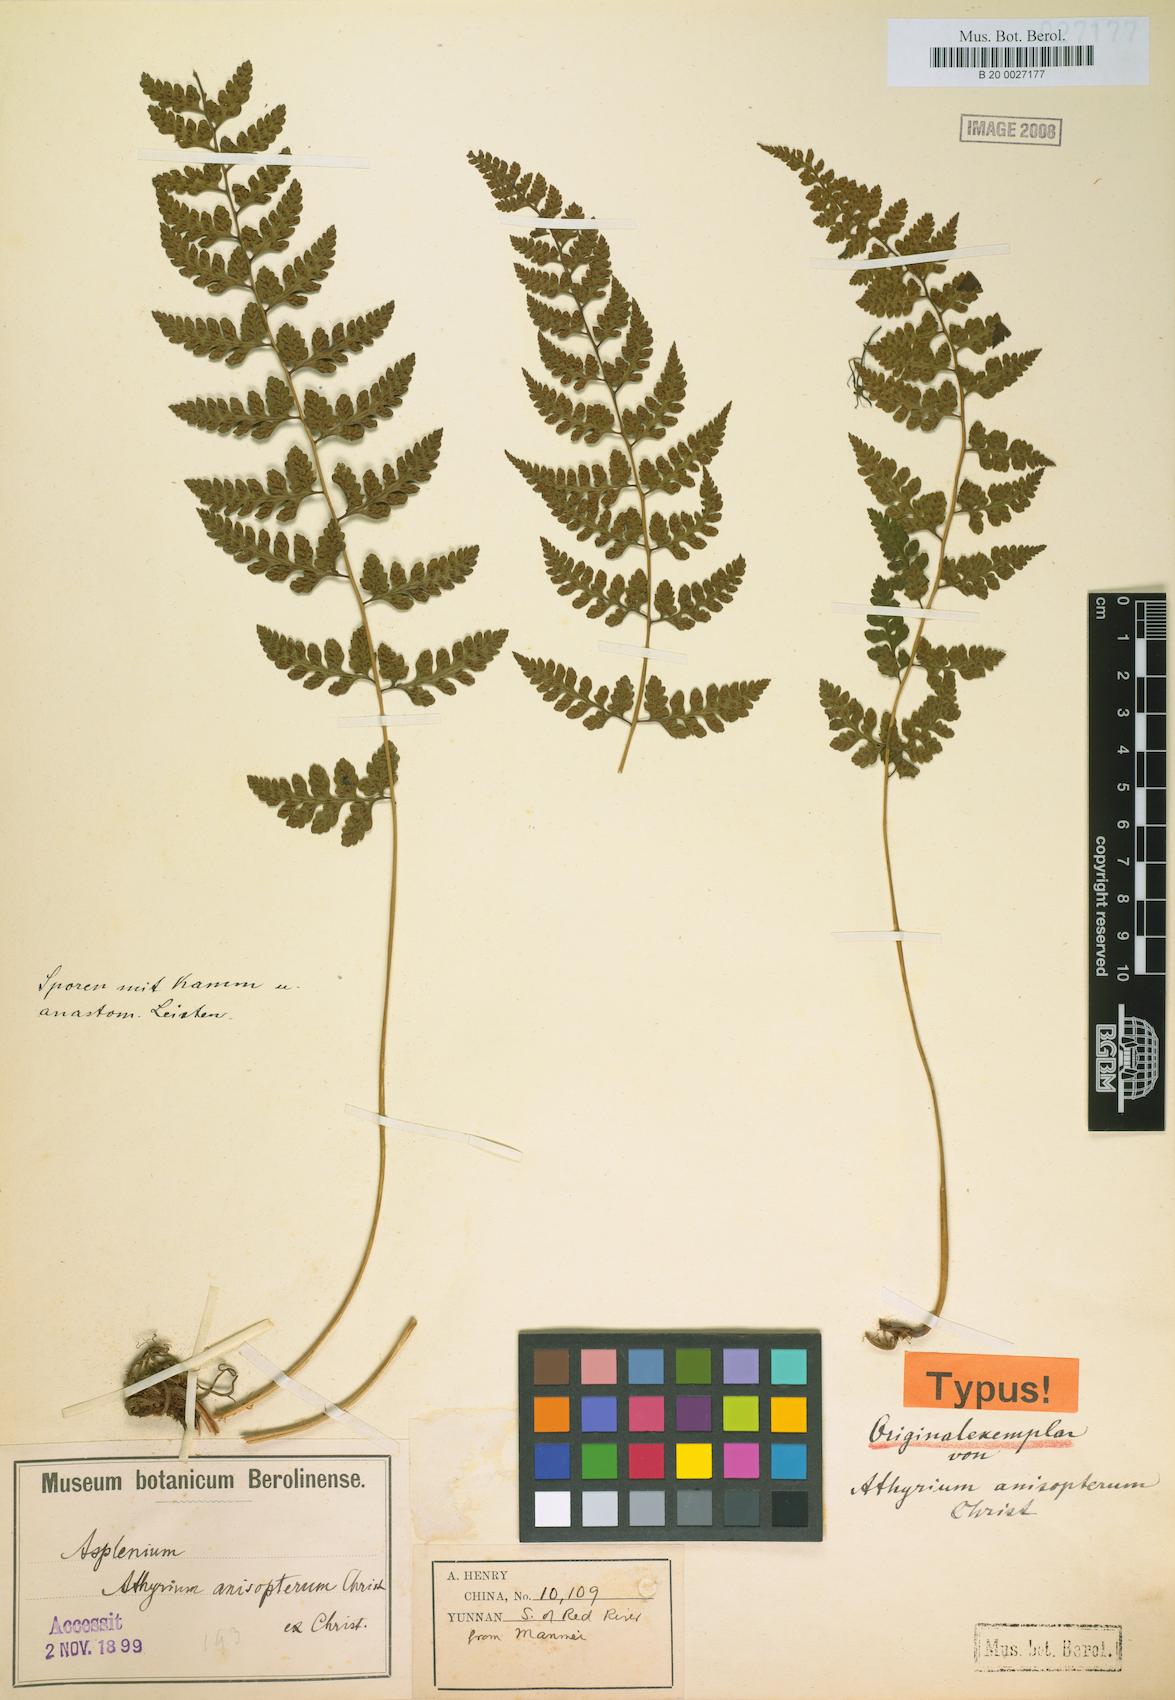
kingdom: Plantae
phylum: Tracheophyta
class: Polypodiopsida
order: Polypodiales
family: Athyriaceae
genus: Athyrium
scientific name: Athyrium anisopterum
